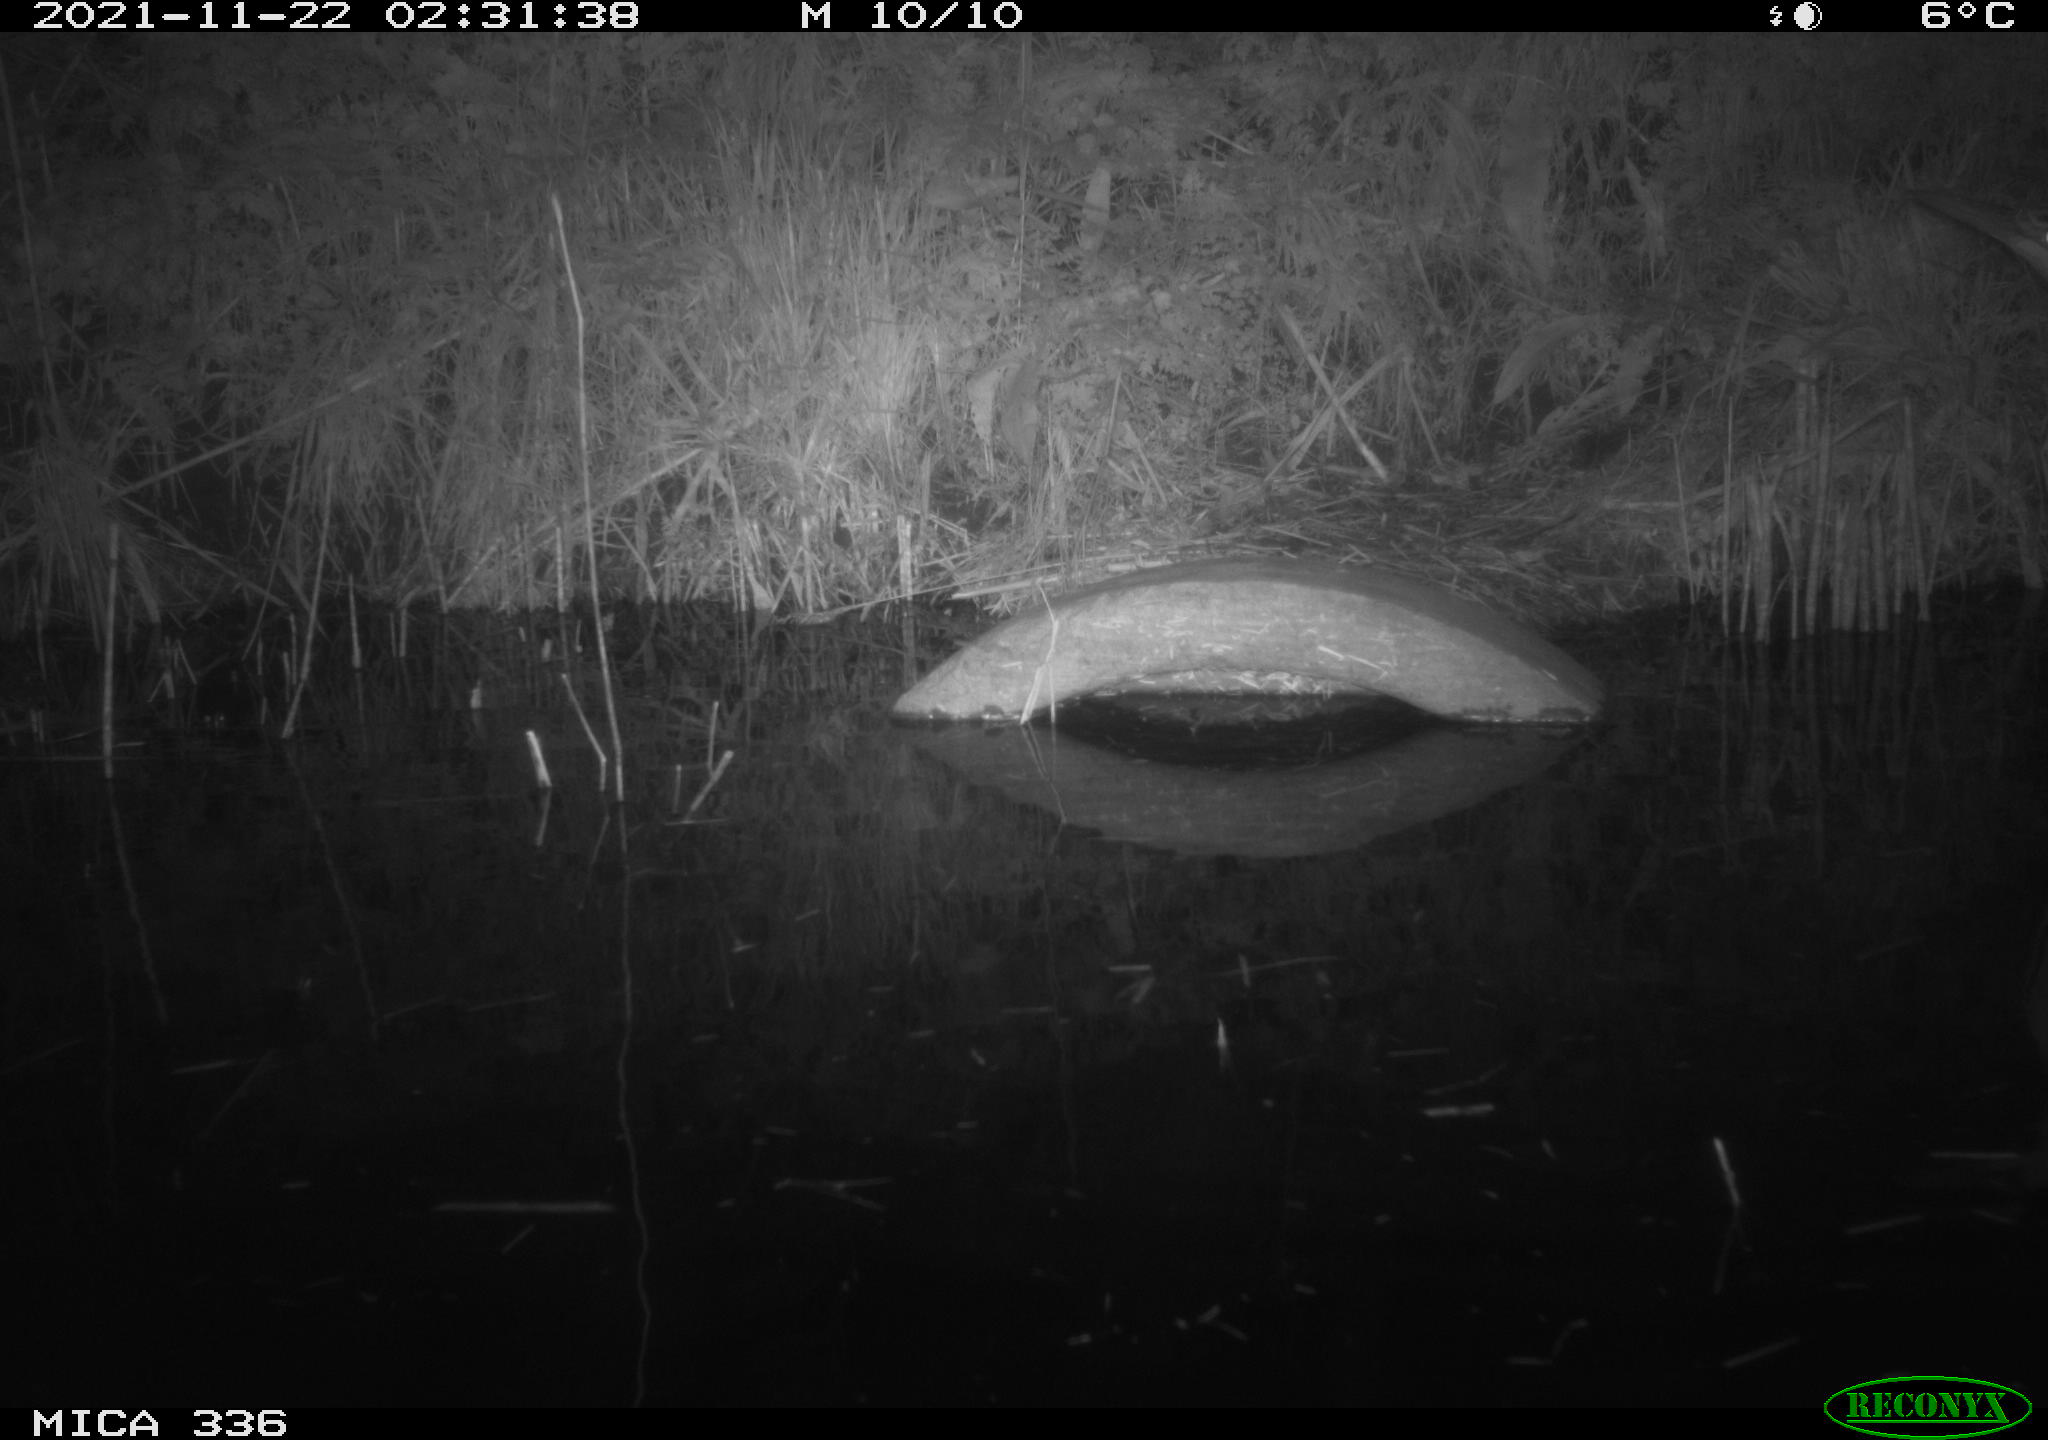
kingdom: Animalia
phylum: Chordata
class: Aves
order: Pelecaniformes
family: Ardeidae
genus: Ardea
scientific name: Ardea cinerea
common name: Grey heron
